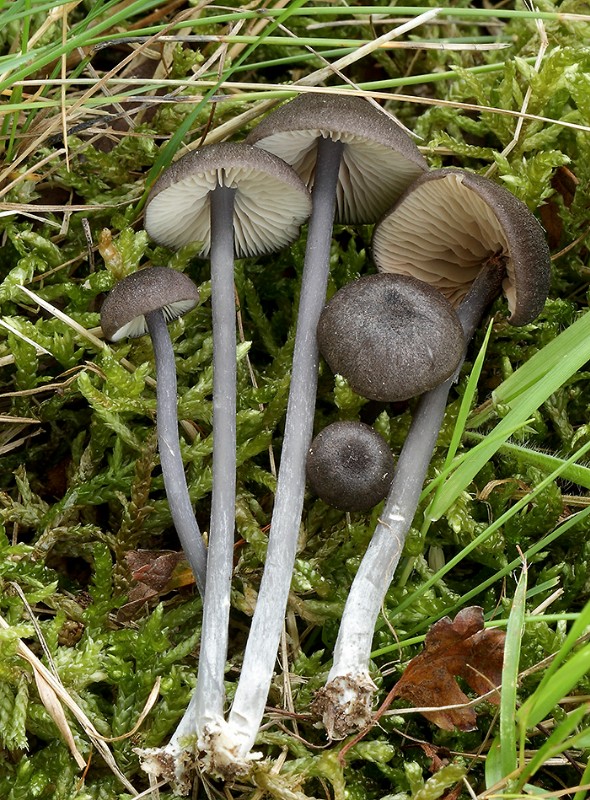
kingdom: Fungi
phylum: Basidiomycota
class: Agaricomycetes
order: Agaricales
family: Entolomataceae
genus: Entoloma
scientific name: Entoloma atrocoeruleum
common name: sortblå rødblad
